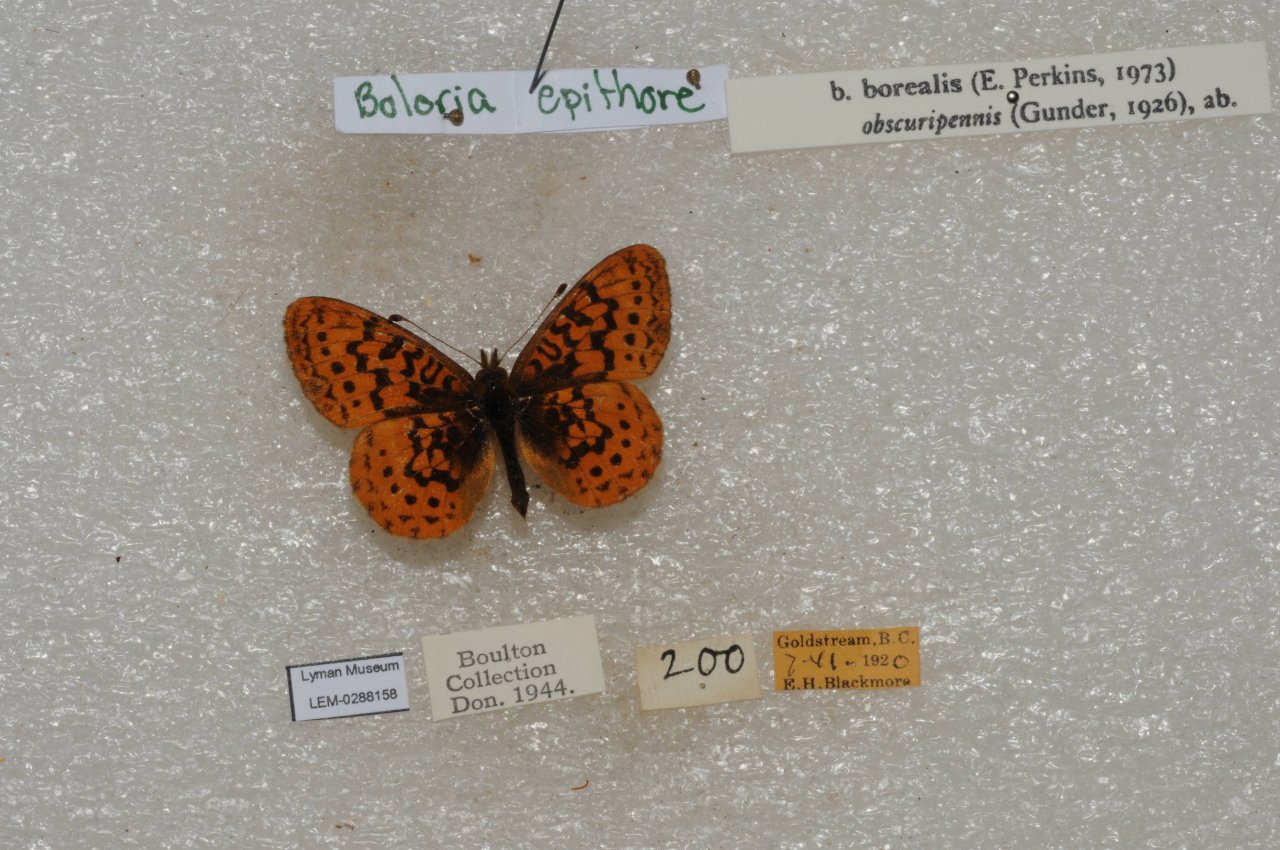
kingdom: Animalia
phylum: Arthropoda
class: Insecta
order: Lepidoptera
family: Nymphalidae
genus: Boloria
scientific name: Boloria epithore
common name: Pacific Fritillary
